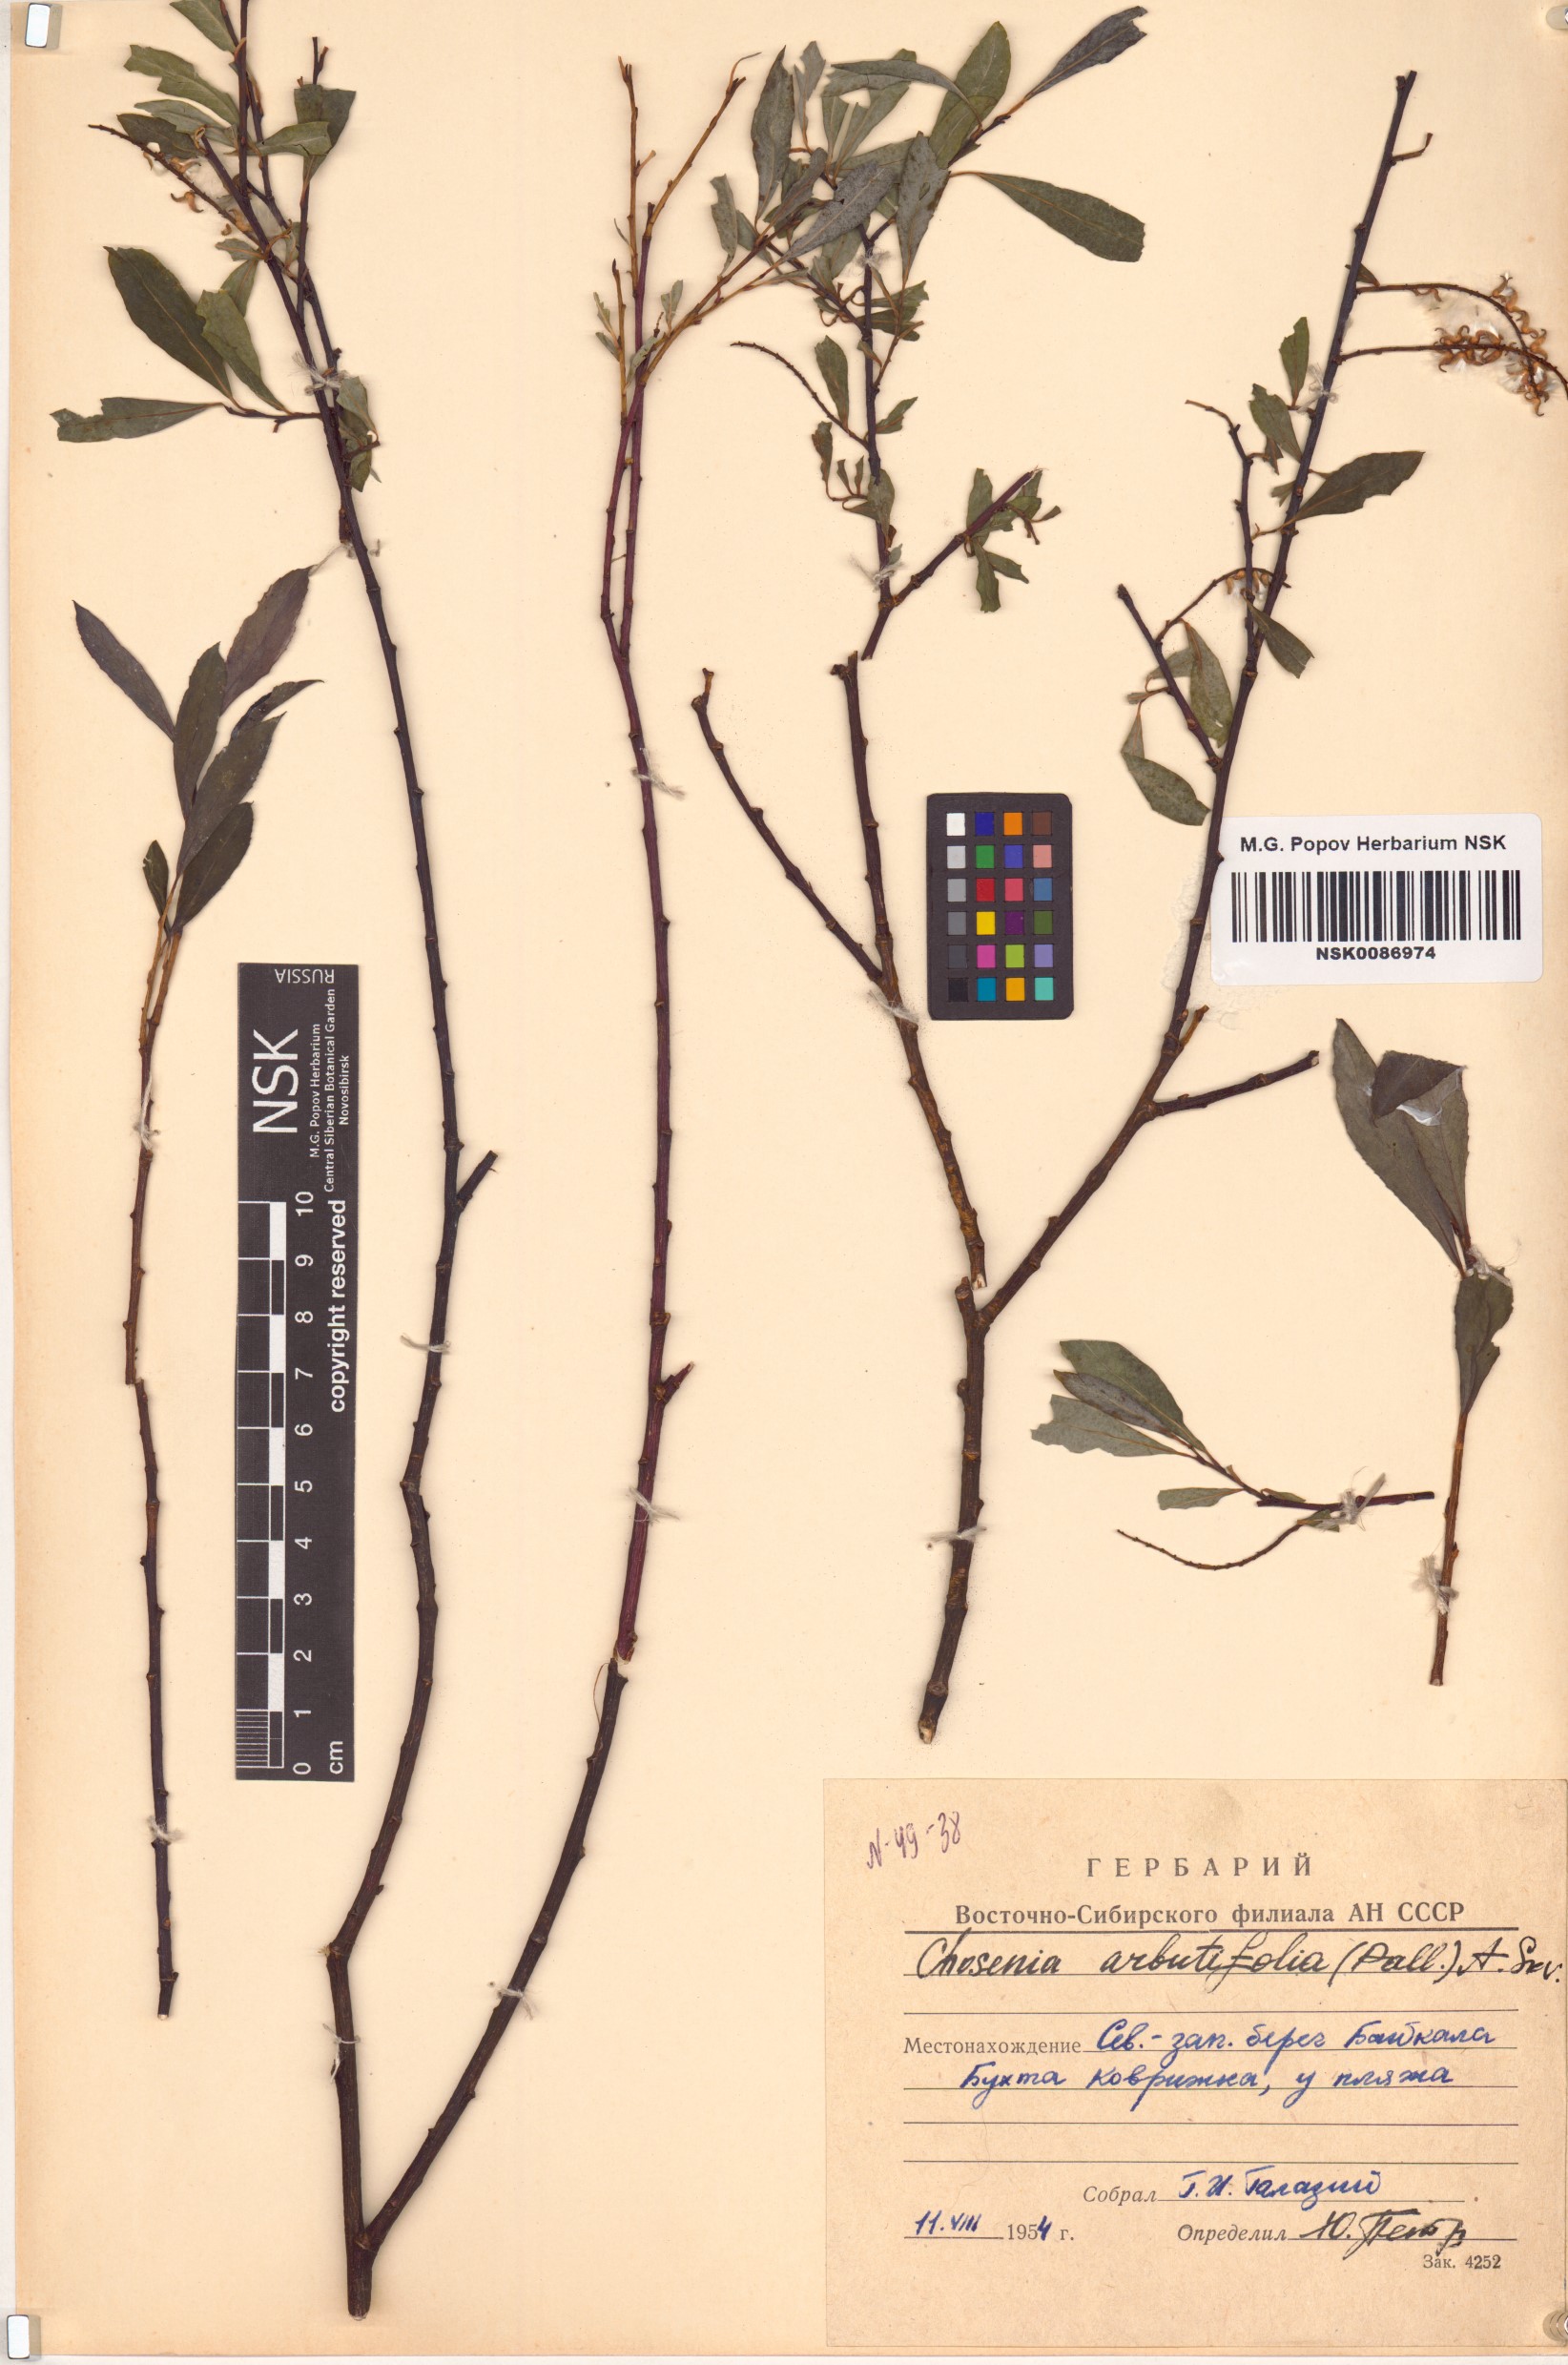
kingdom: Plantae
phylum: Tracheophyta
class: Magnoliopsida
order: Malpighiales
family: Salicaceae
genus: Chosenia
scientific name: Chosenia arbutifolia
